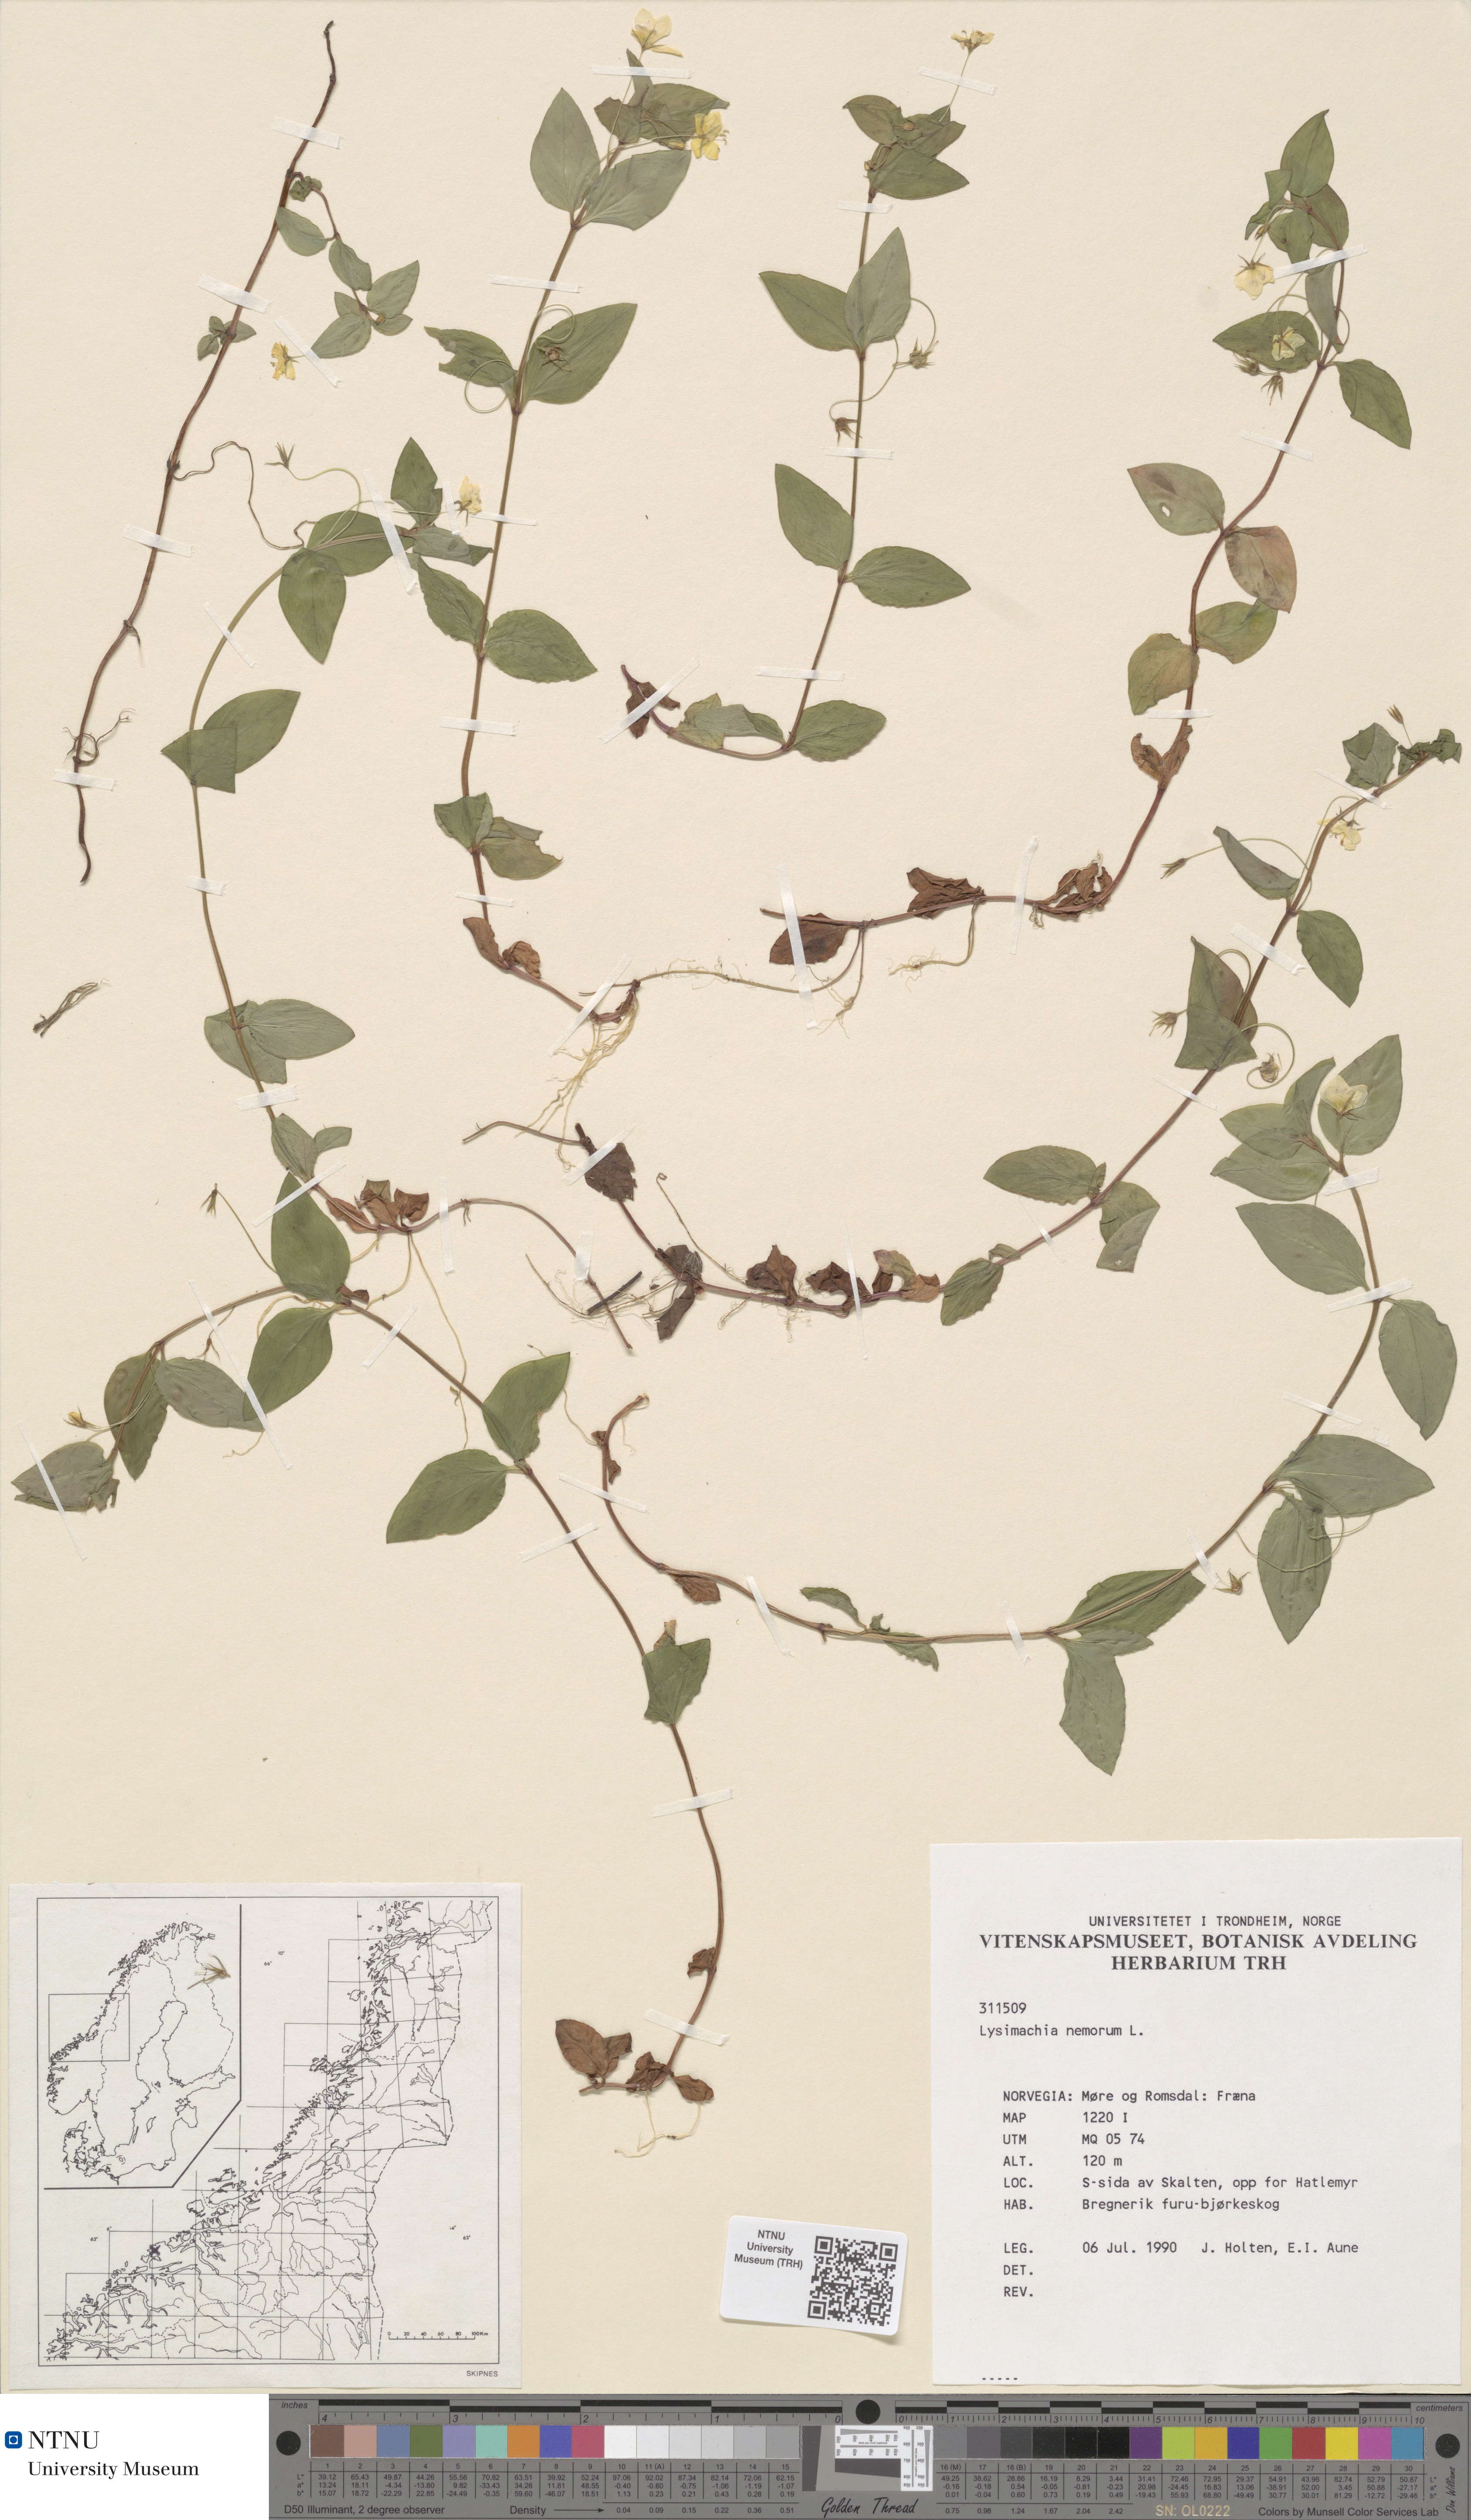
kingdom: Plantae
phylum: Tracheophyta
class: Magnoliopsida
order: Ericales
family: Primulaceae
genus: Lysimachia
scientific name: Lysimachia nemorum
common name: Yellow pimpernel
